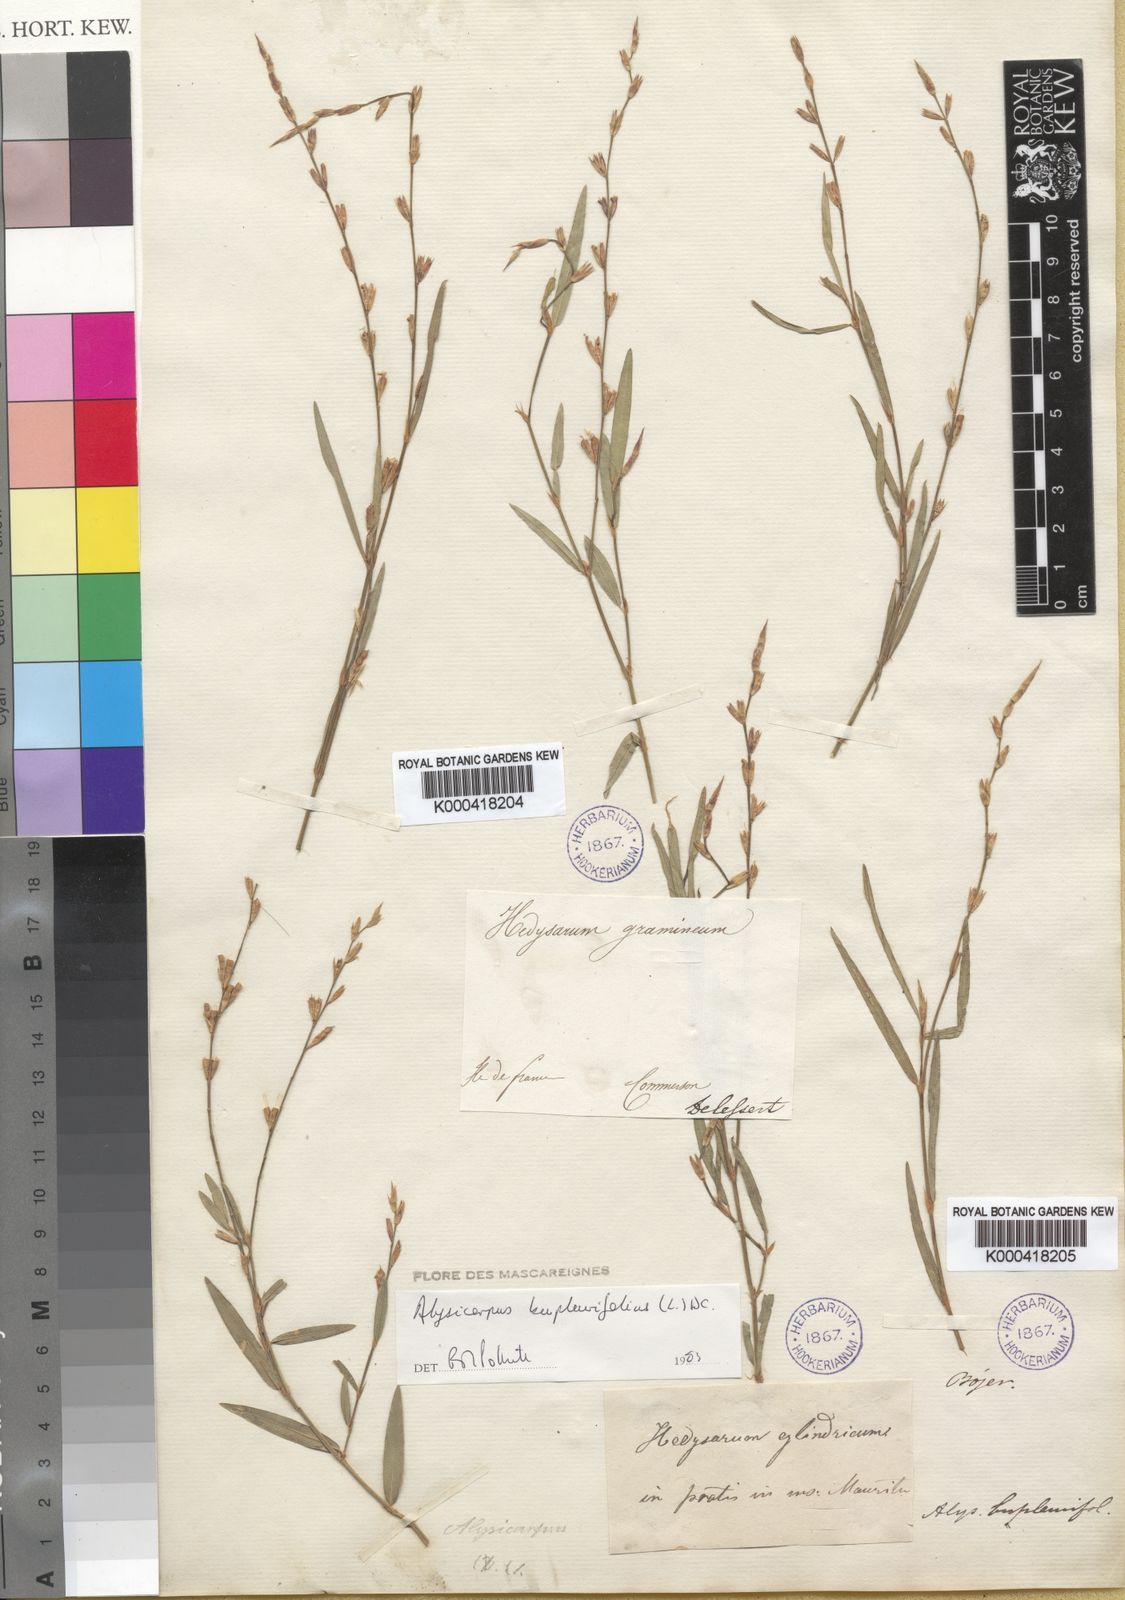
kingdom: Plantae
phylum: Tracheophyta
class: Magnoliopsida
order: Fabales
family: Fabaceae
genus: Alysicarpus
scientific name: Alysicarpus bupleurifolius
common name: Sweet alys
